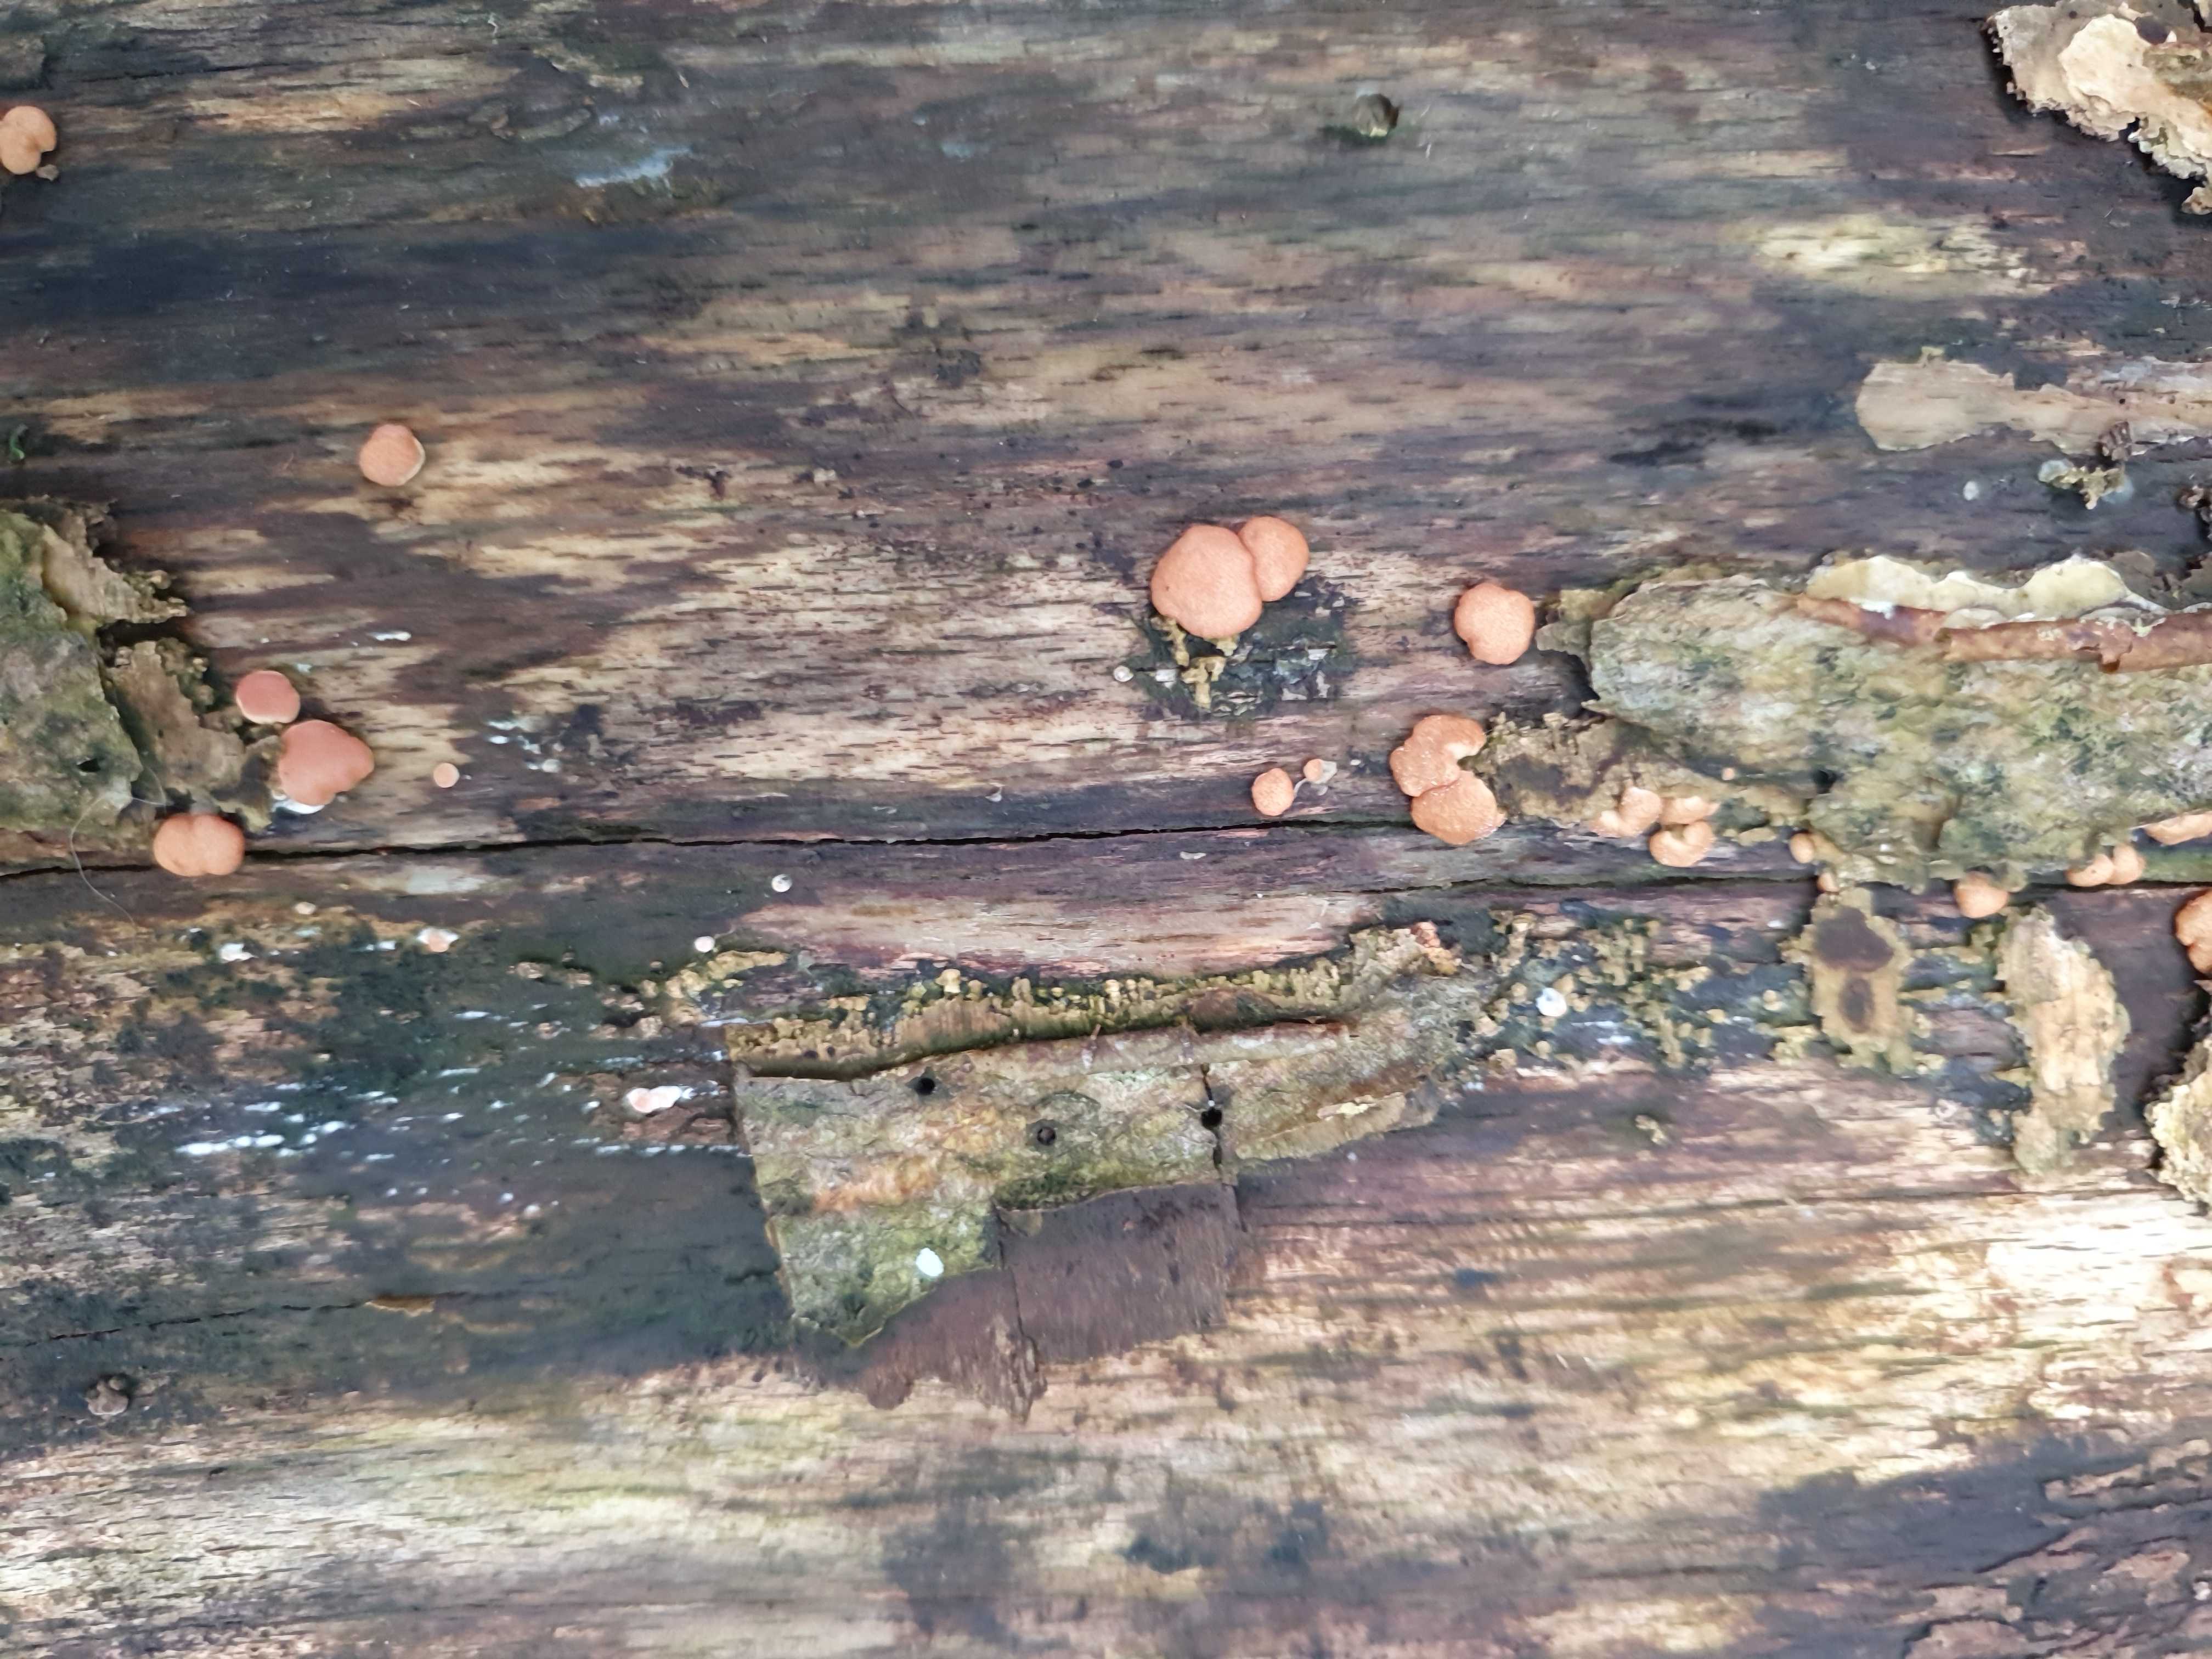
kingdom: Fungi
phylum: Ascomycota
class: Sordariomycetes
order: Hypocreales
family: Hypocreaceae
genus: Trichoderma
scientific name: Trichoderma europaeum
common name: rosabrun kødkerne
